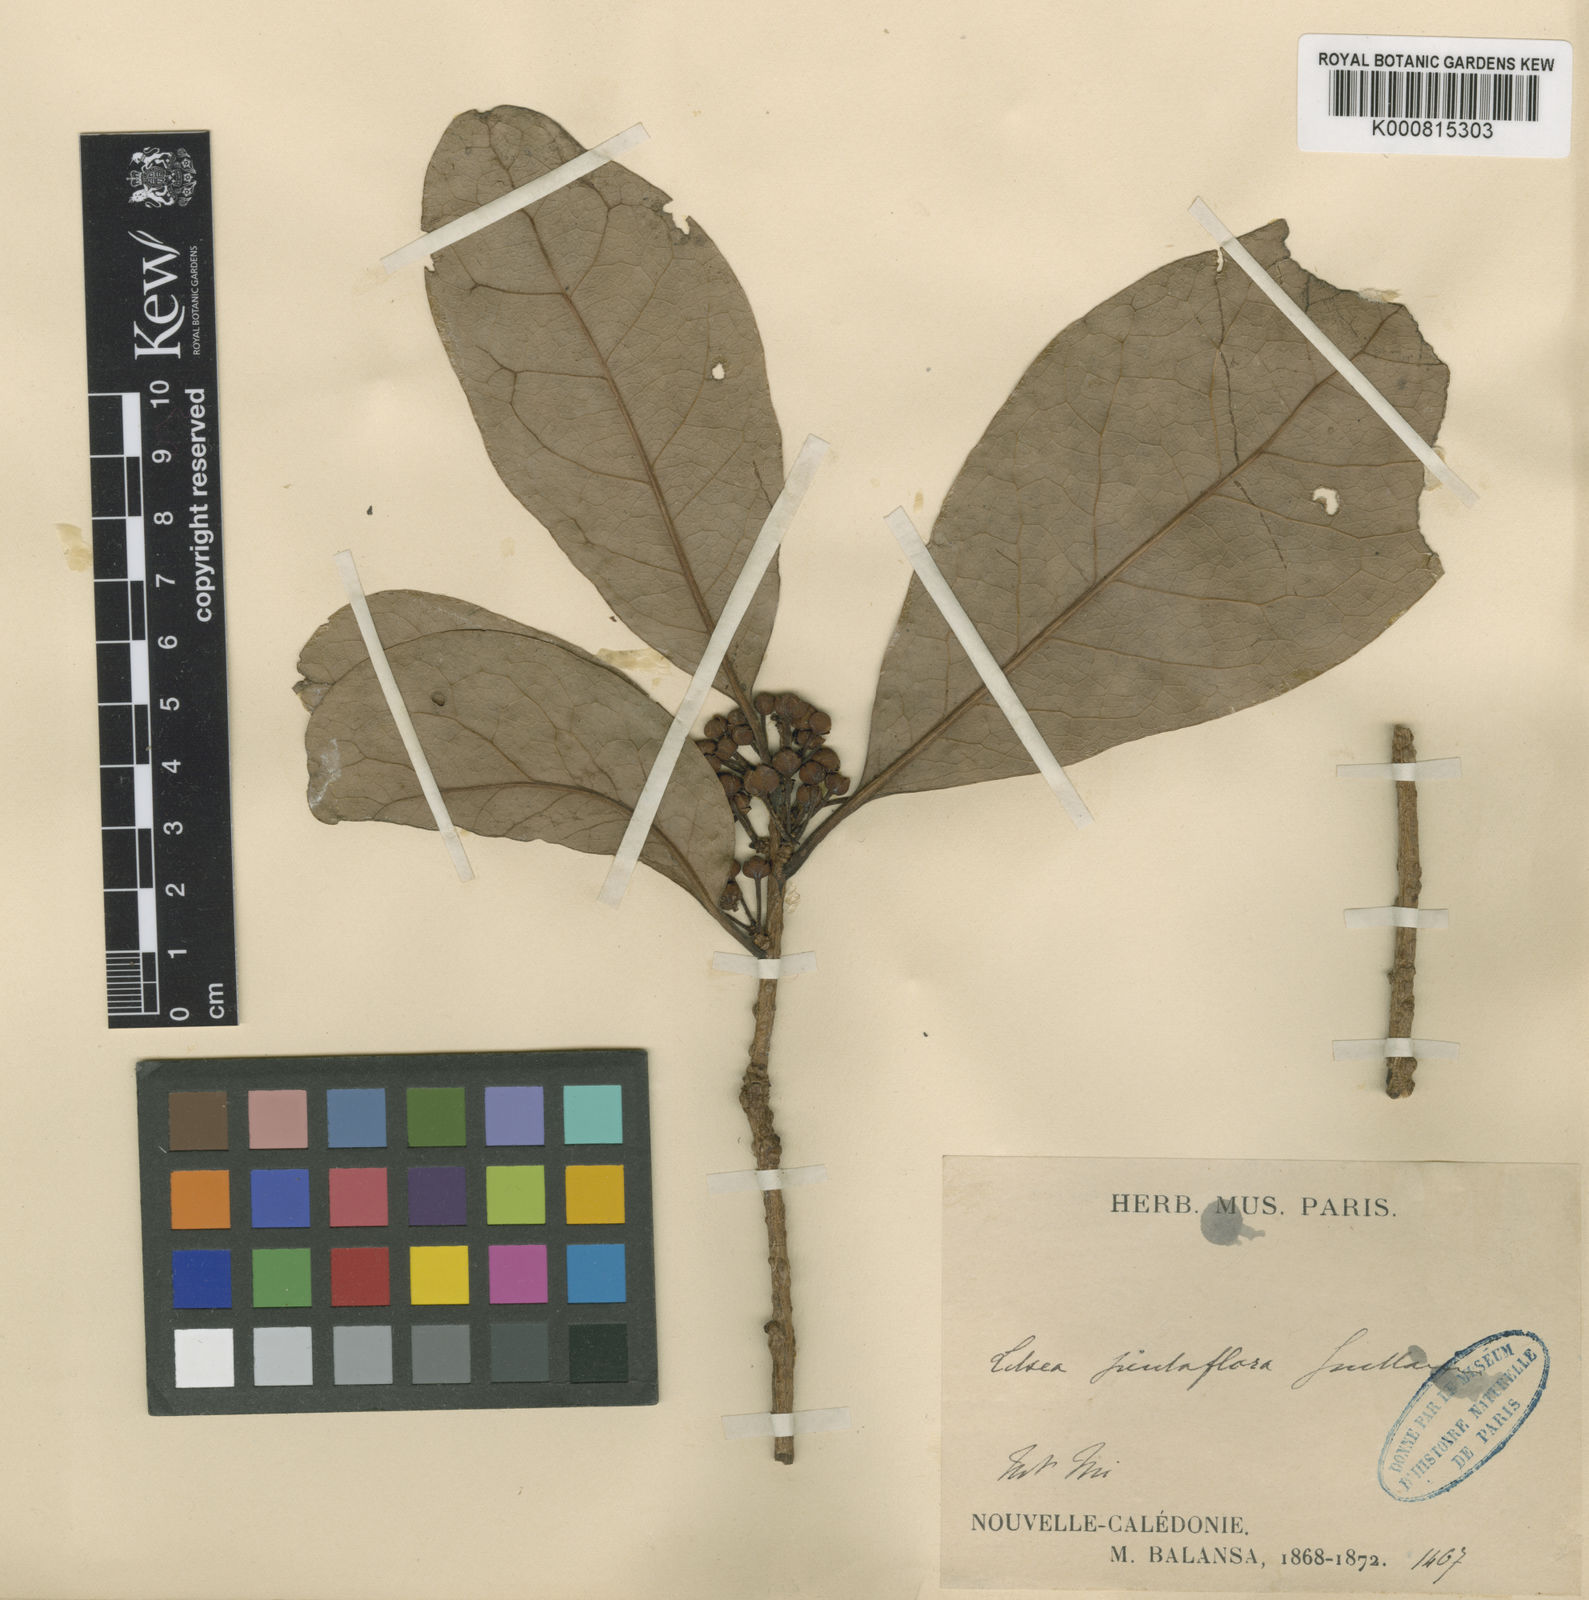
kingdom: Plantae
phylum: Tracheophyta
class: Magnoliopsida
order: Laurales
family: Lauraceae
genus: Litsea
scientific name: Litsea pentaflora
